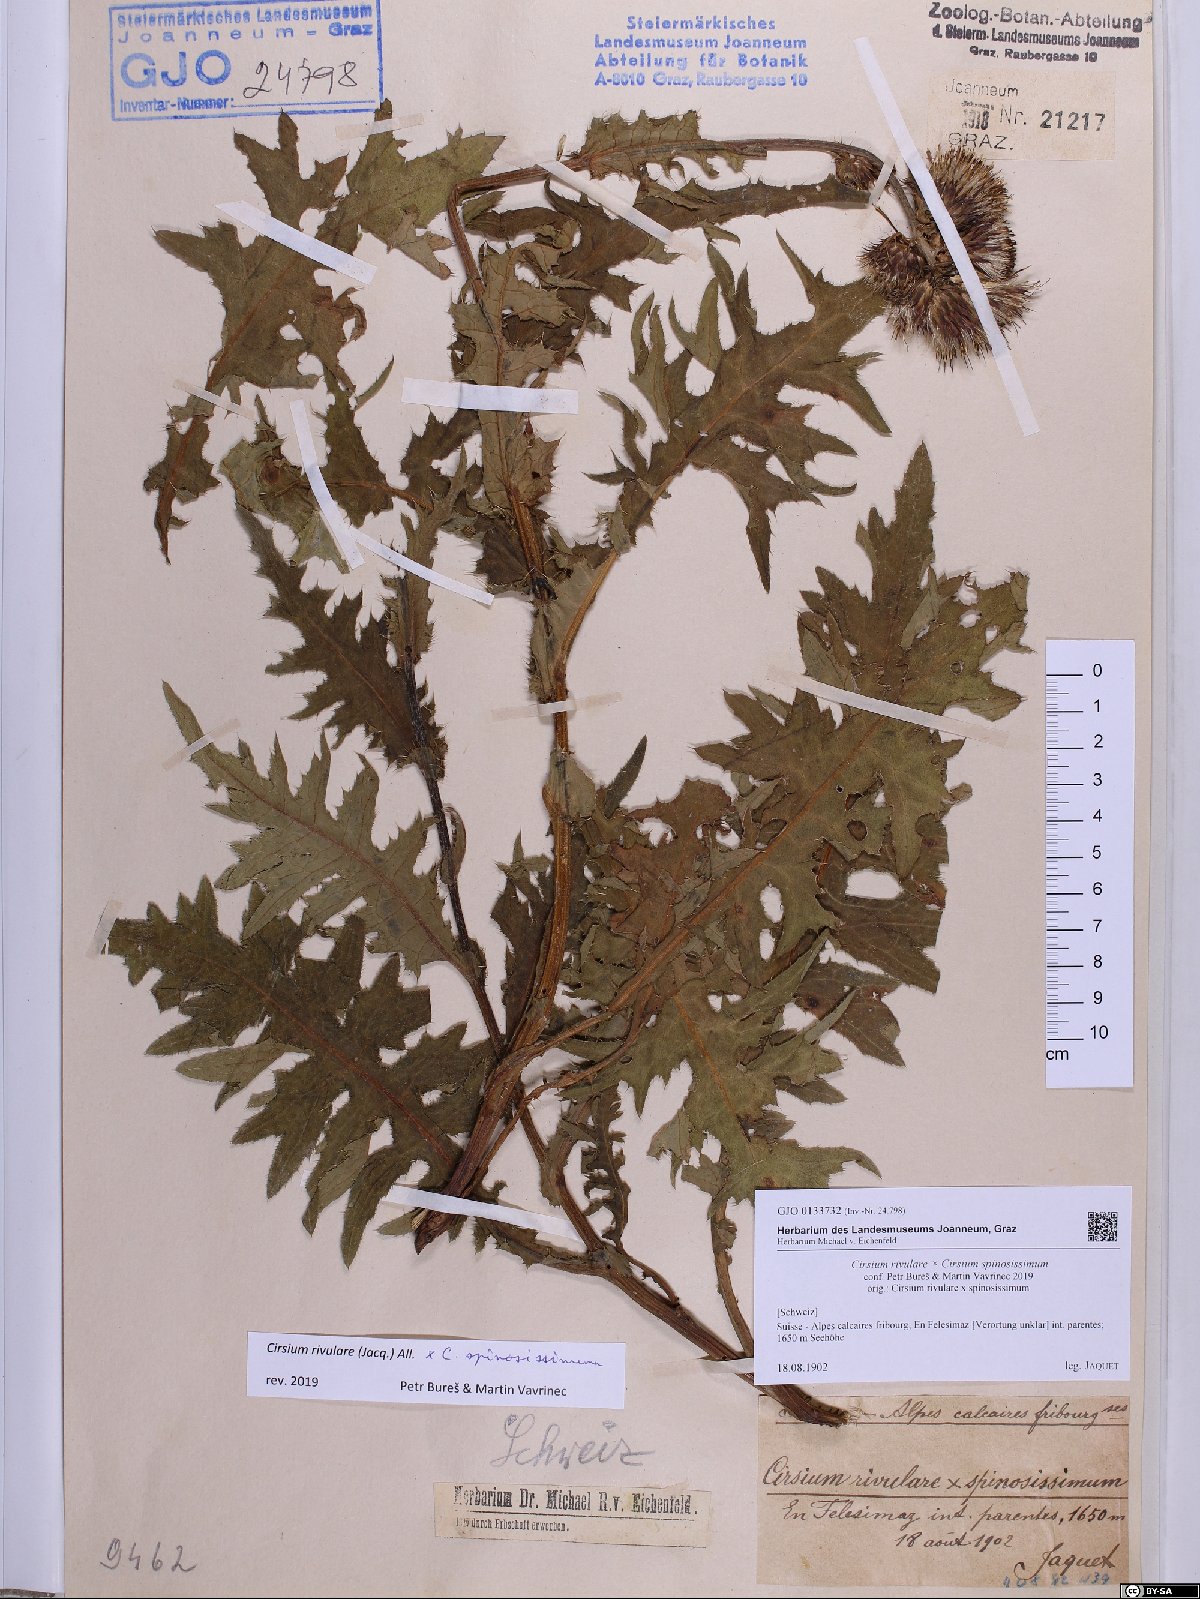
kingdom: Plantae
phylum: Tracheophyta
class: Magnoliopsida
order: Asterales
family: Asteraceae
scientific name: Asteraceae
